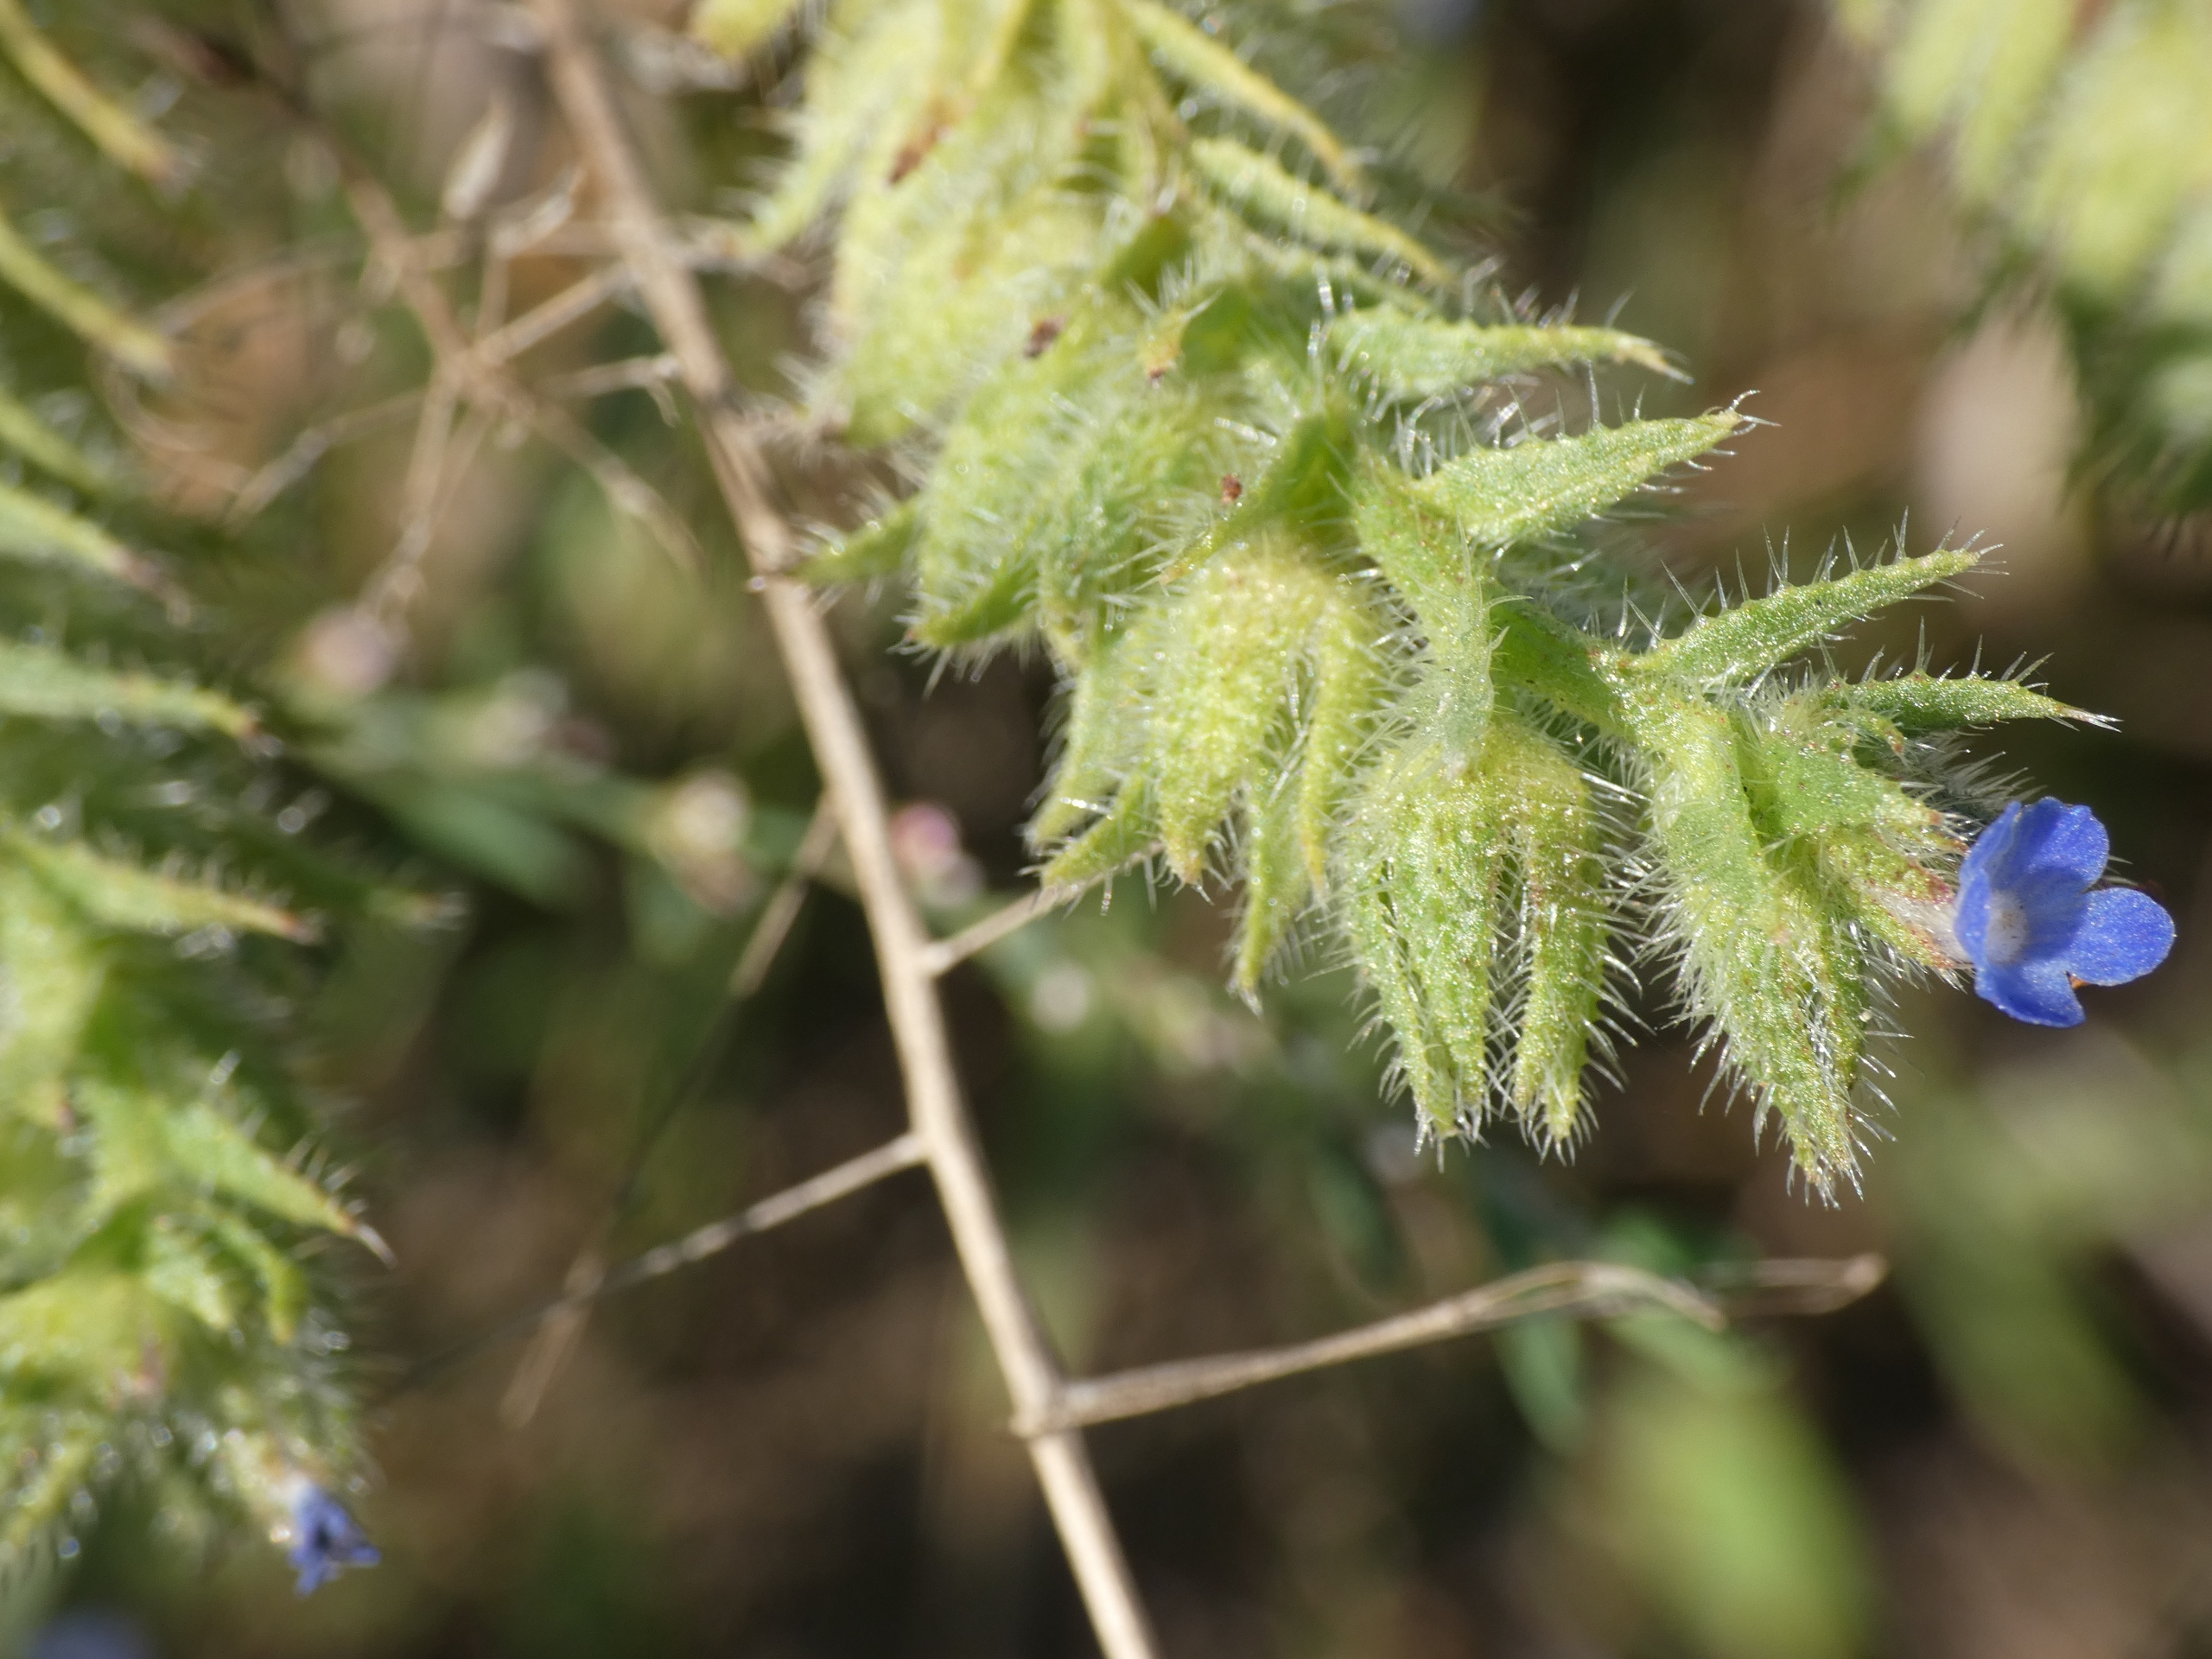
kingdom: Plantae
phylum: Tracheophyta
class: Magnoliopsida
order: Boraginales
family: Boraginaceae
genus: Lycopsis
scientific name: Lycopsis arvensis
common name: Krumhals
